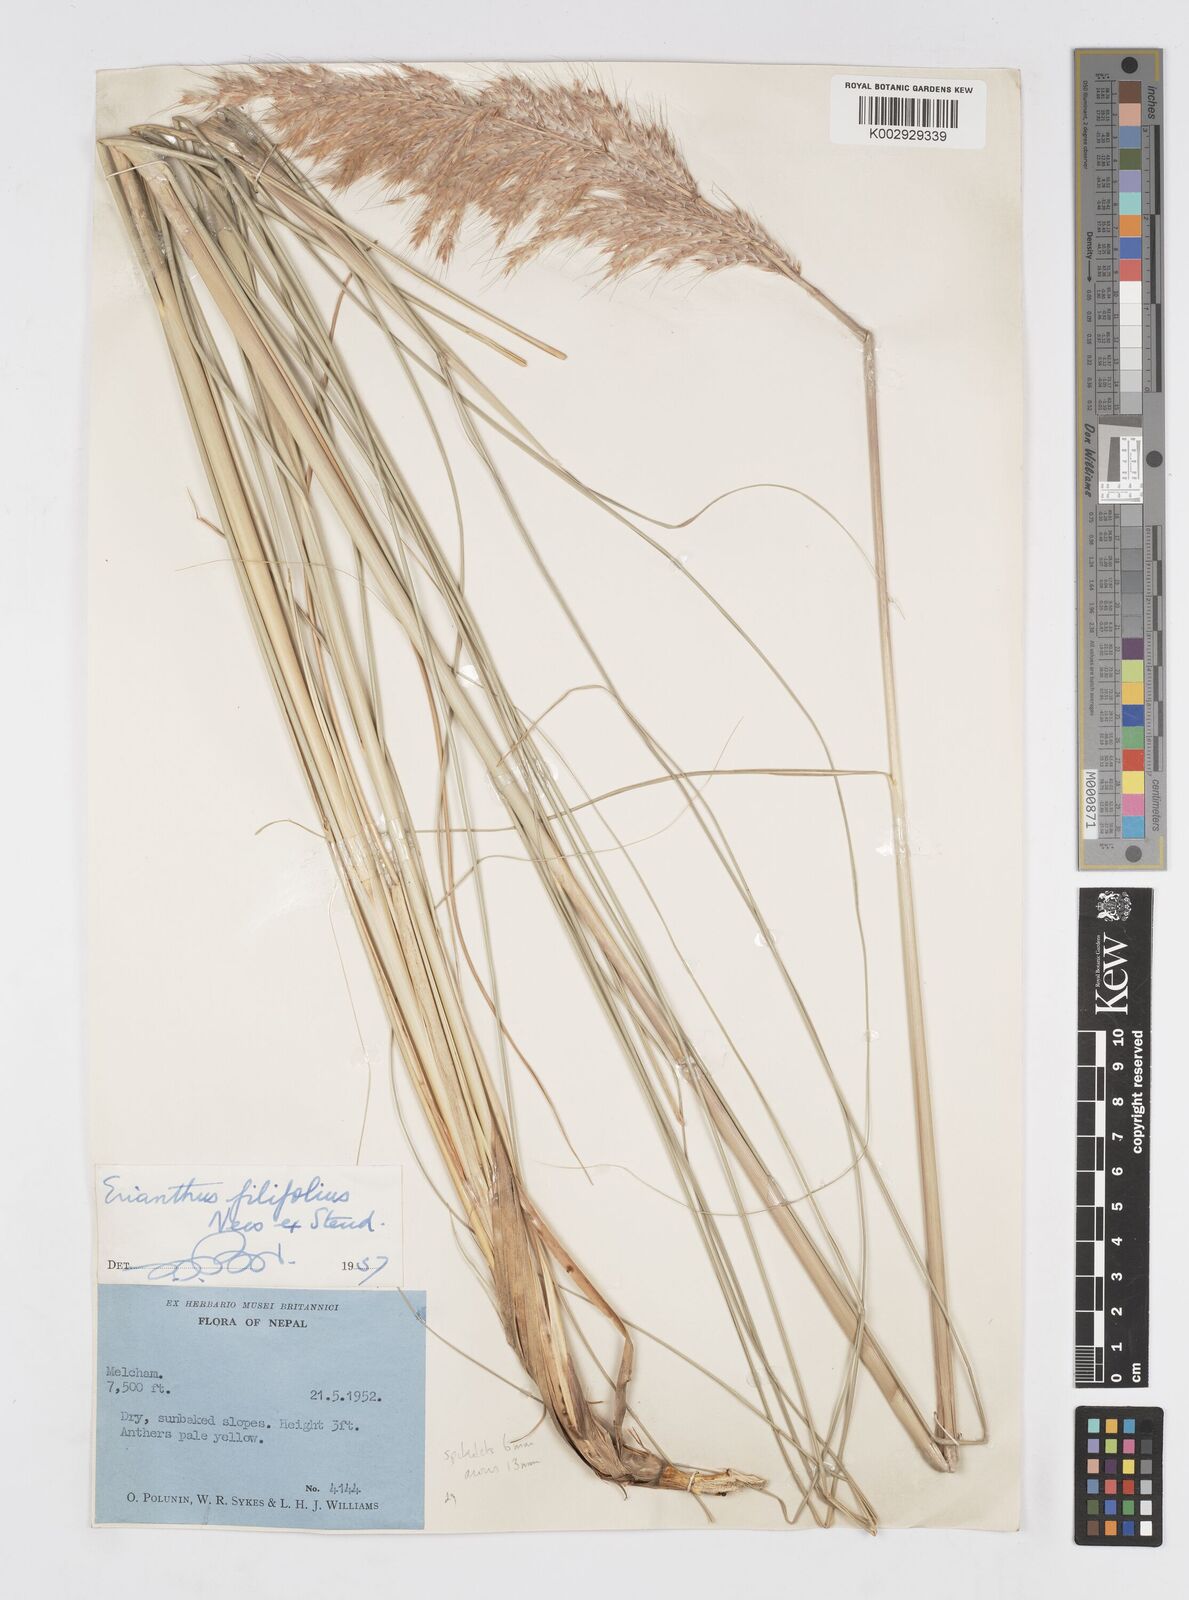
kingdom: Plantae
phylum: Tracheophyta
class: Liliopsida
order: Poales
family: Poaceae
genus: Saccharum
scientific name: Saccharum filifolium
